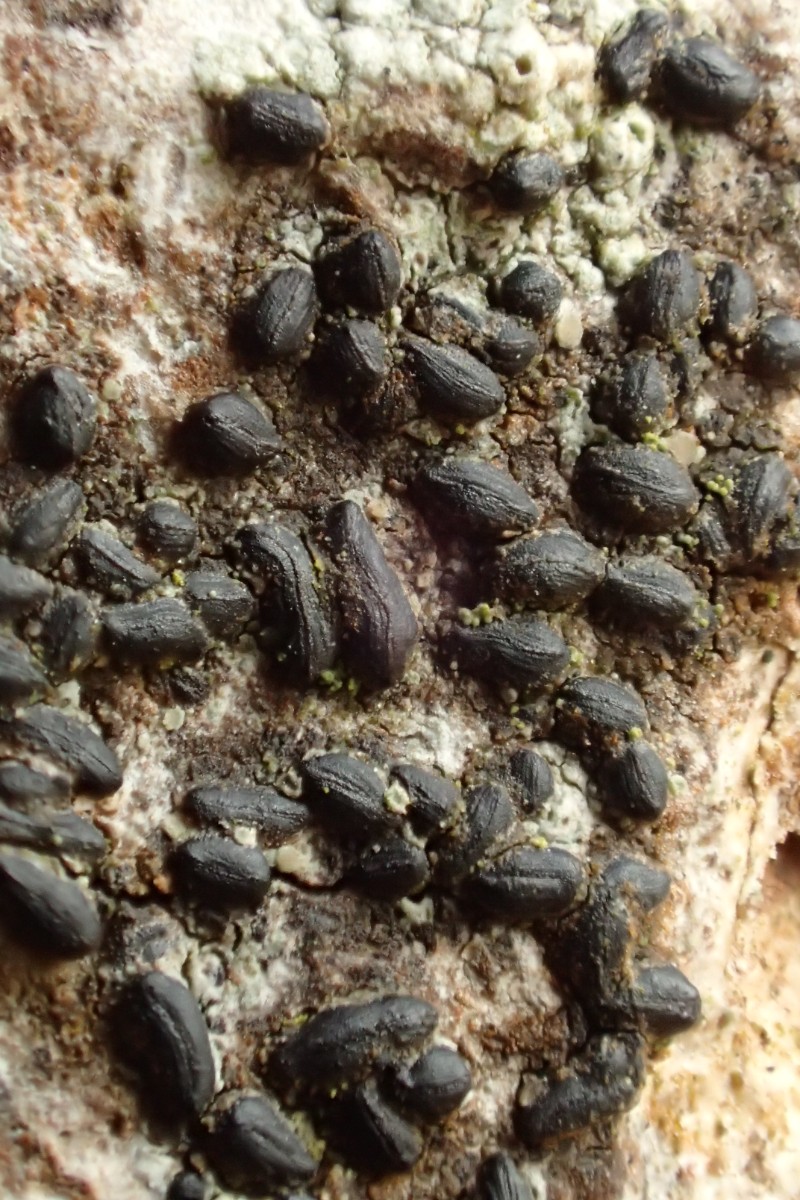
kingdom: Fungi
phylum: Ascomycota
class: Dothideomycetes
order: Hysteriales
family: Hysteriaceae
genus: Hysterium
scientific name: Hysterium acuminatum
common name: almindelig kulmund
